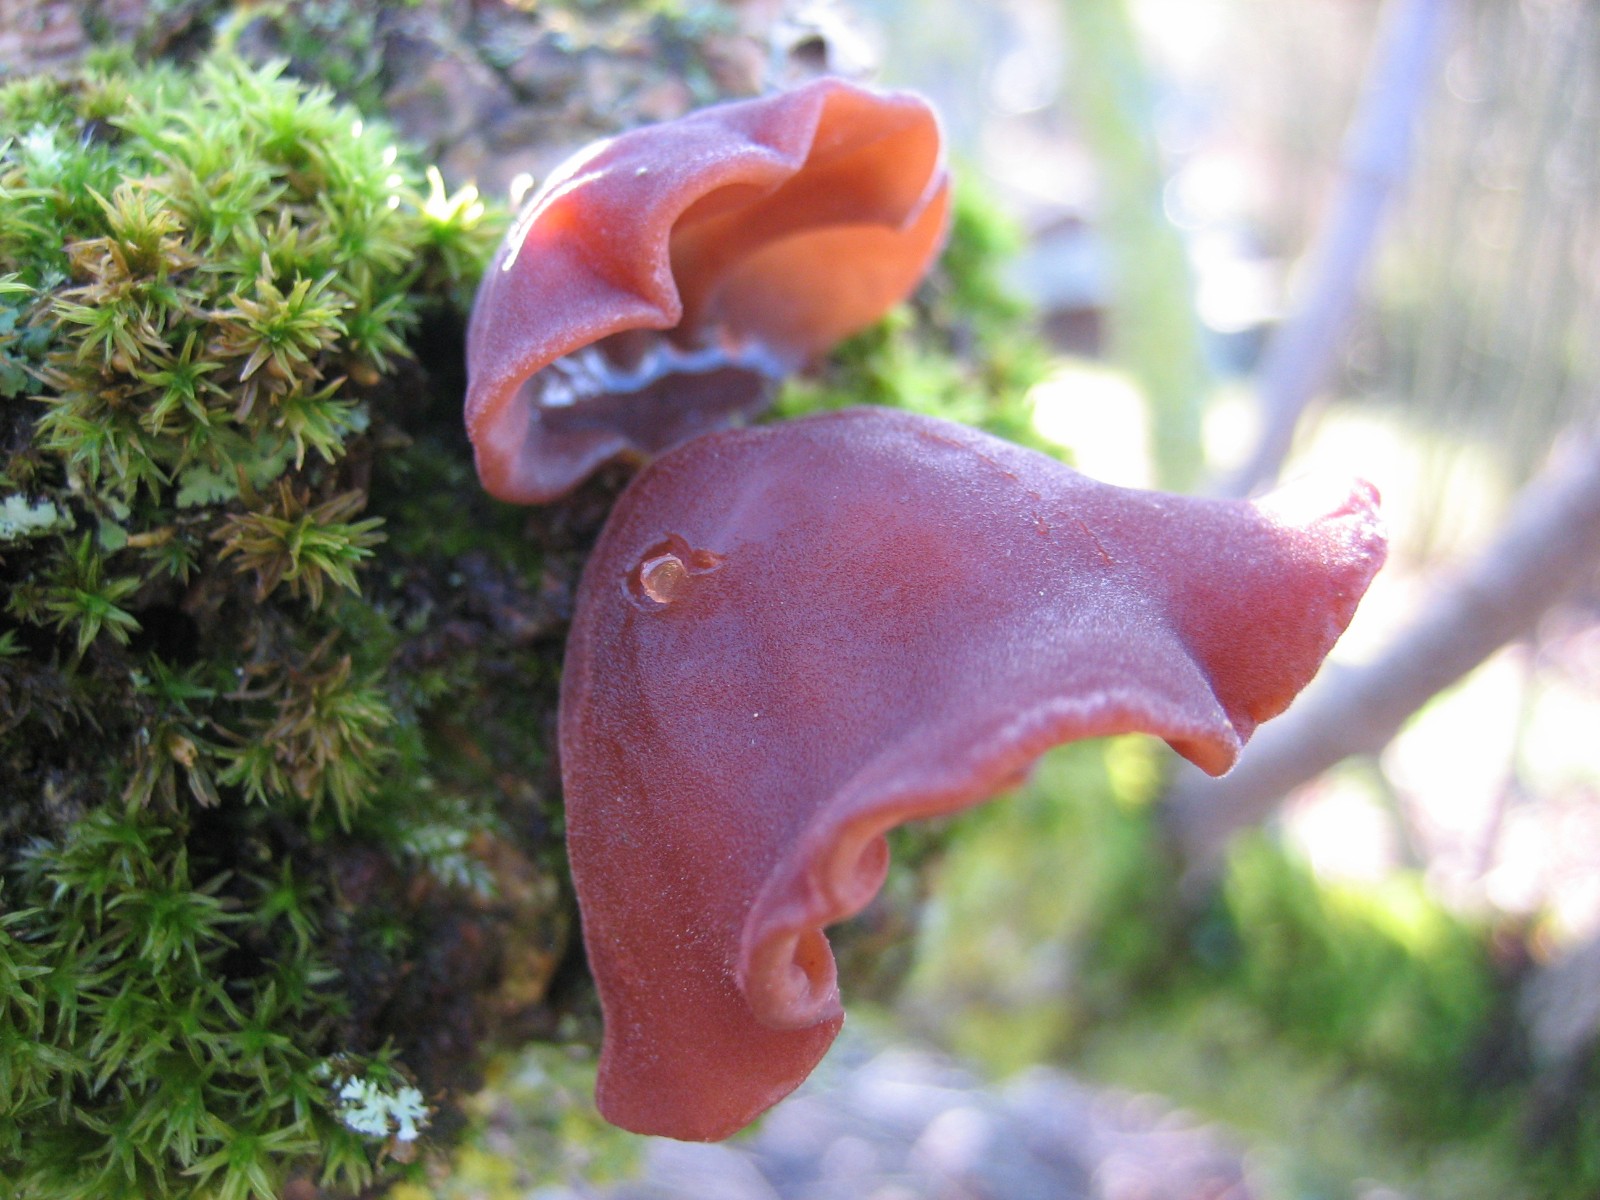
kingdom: Fungi
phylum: Basidiomycota
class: Agaricomycetes
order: Auriculariales
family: Auriculariaceae
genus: Auricularia
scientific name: Auricularia auricula-judae
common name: almindelig judasøre
